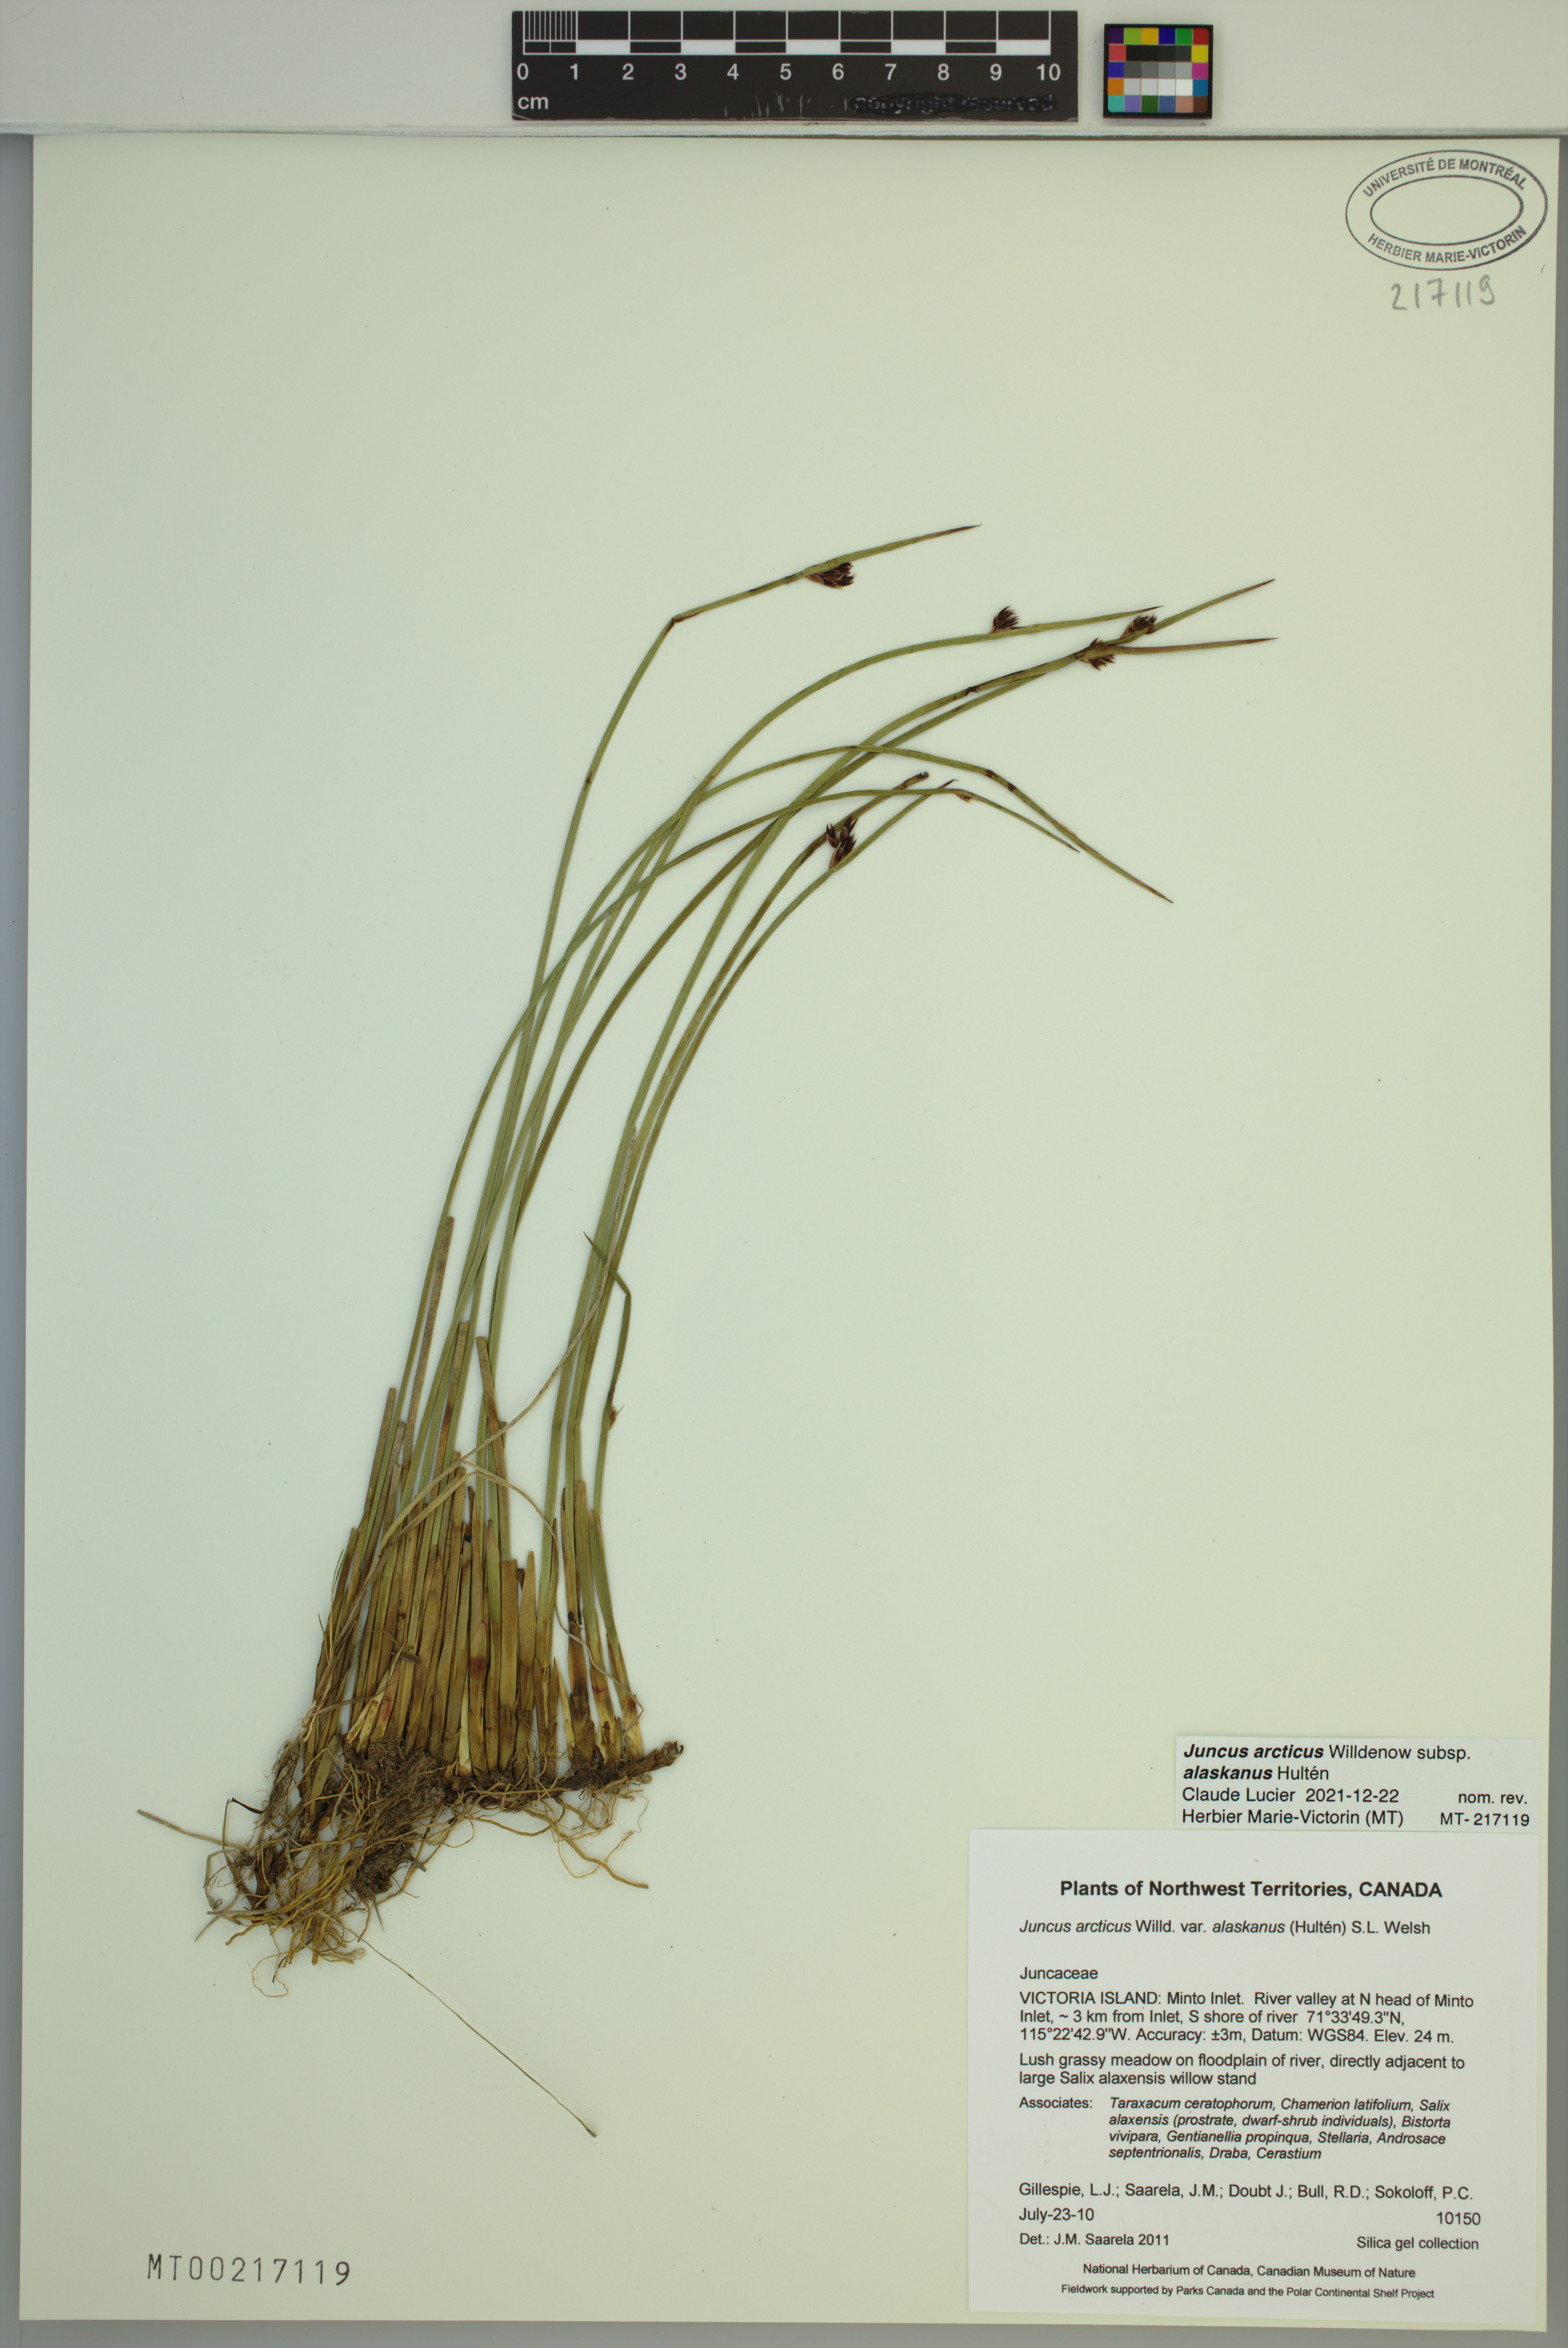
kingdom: Plantae
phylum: Tracheophyta
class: Liliopsida
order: Poales
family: Juncaceae
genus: Juncus
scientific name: Juncus arcticus
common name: Arctic rush
